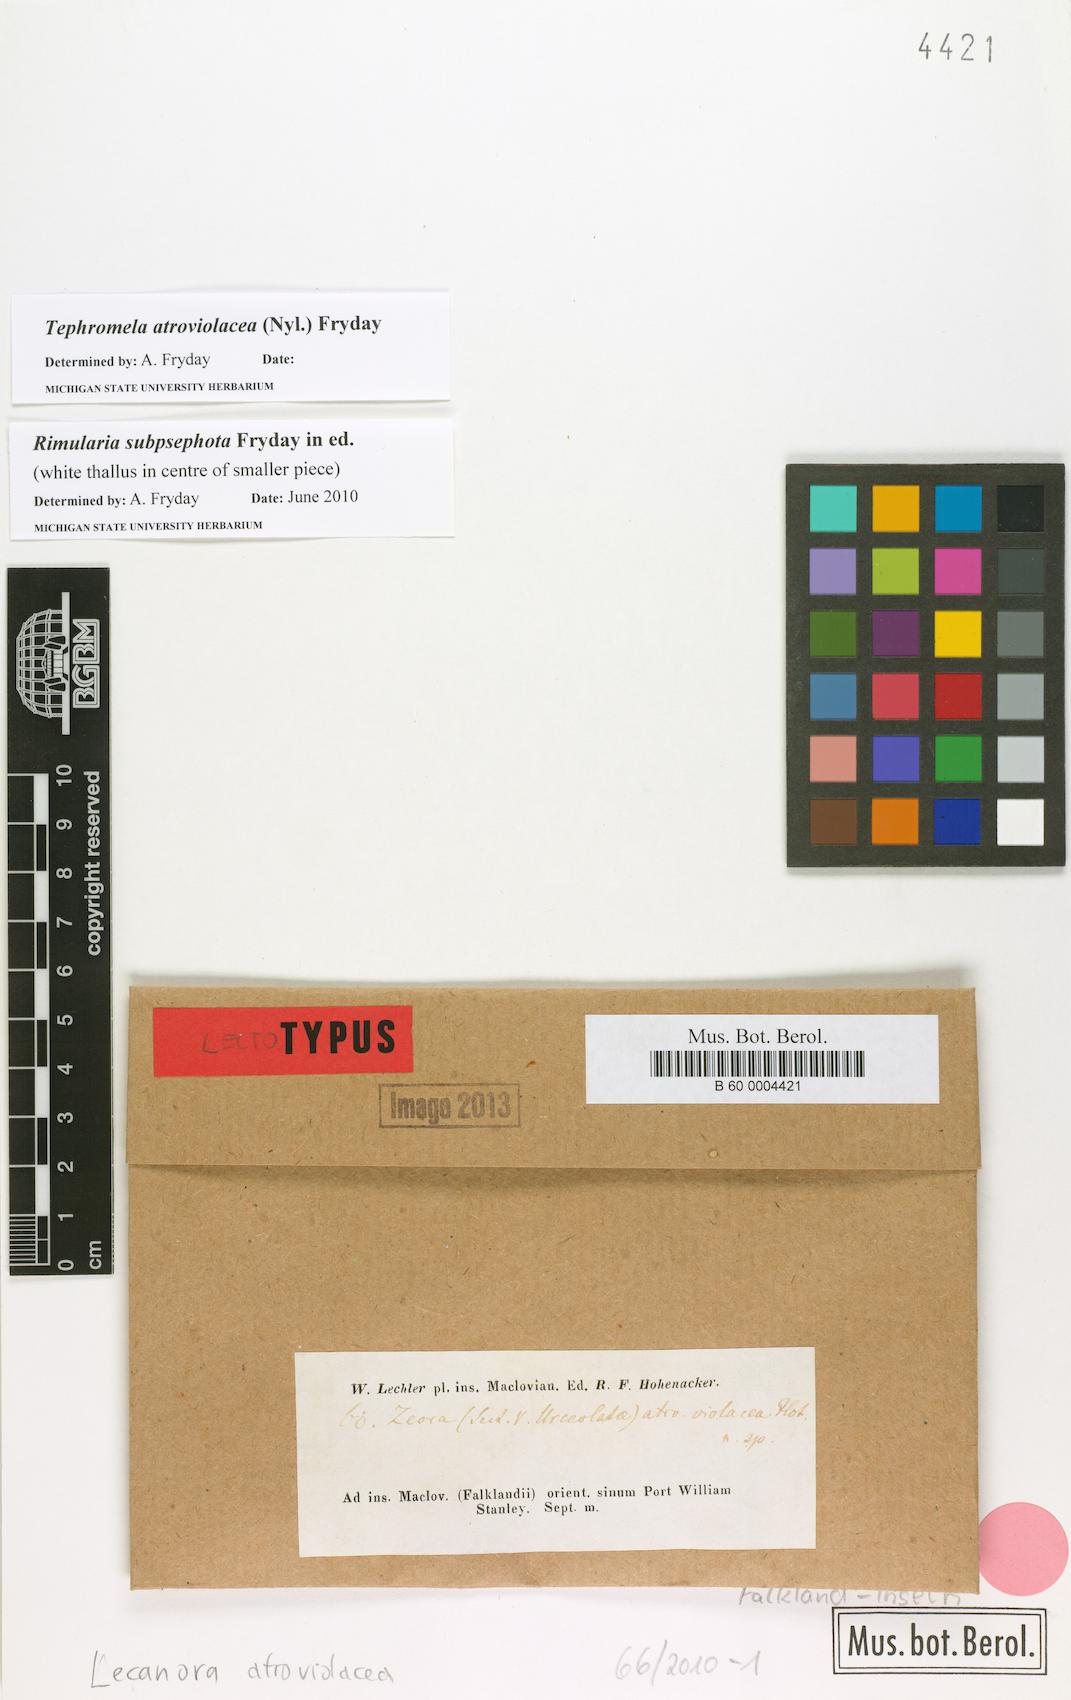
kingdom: Fungi
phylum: Ascomycota
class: Lecanoromycetes
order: Lecanorales
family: Tephromelataceae
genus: Tephromela
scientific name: Tephromela atroviolacea
